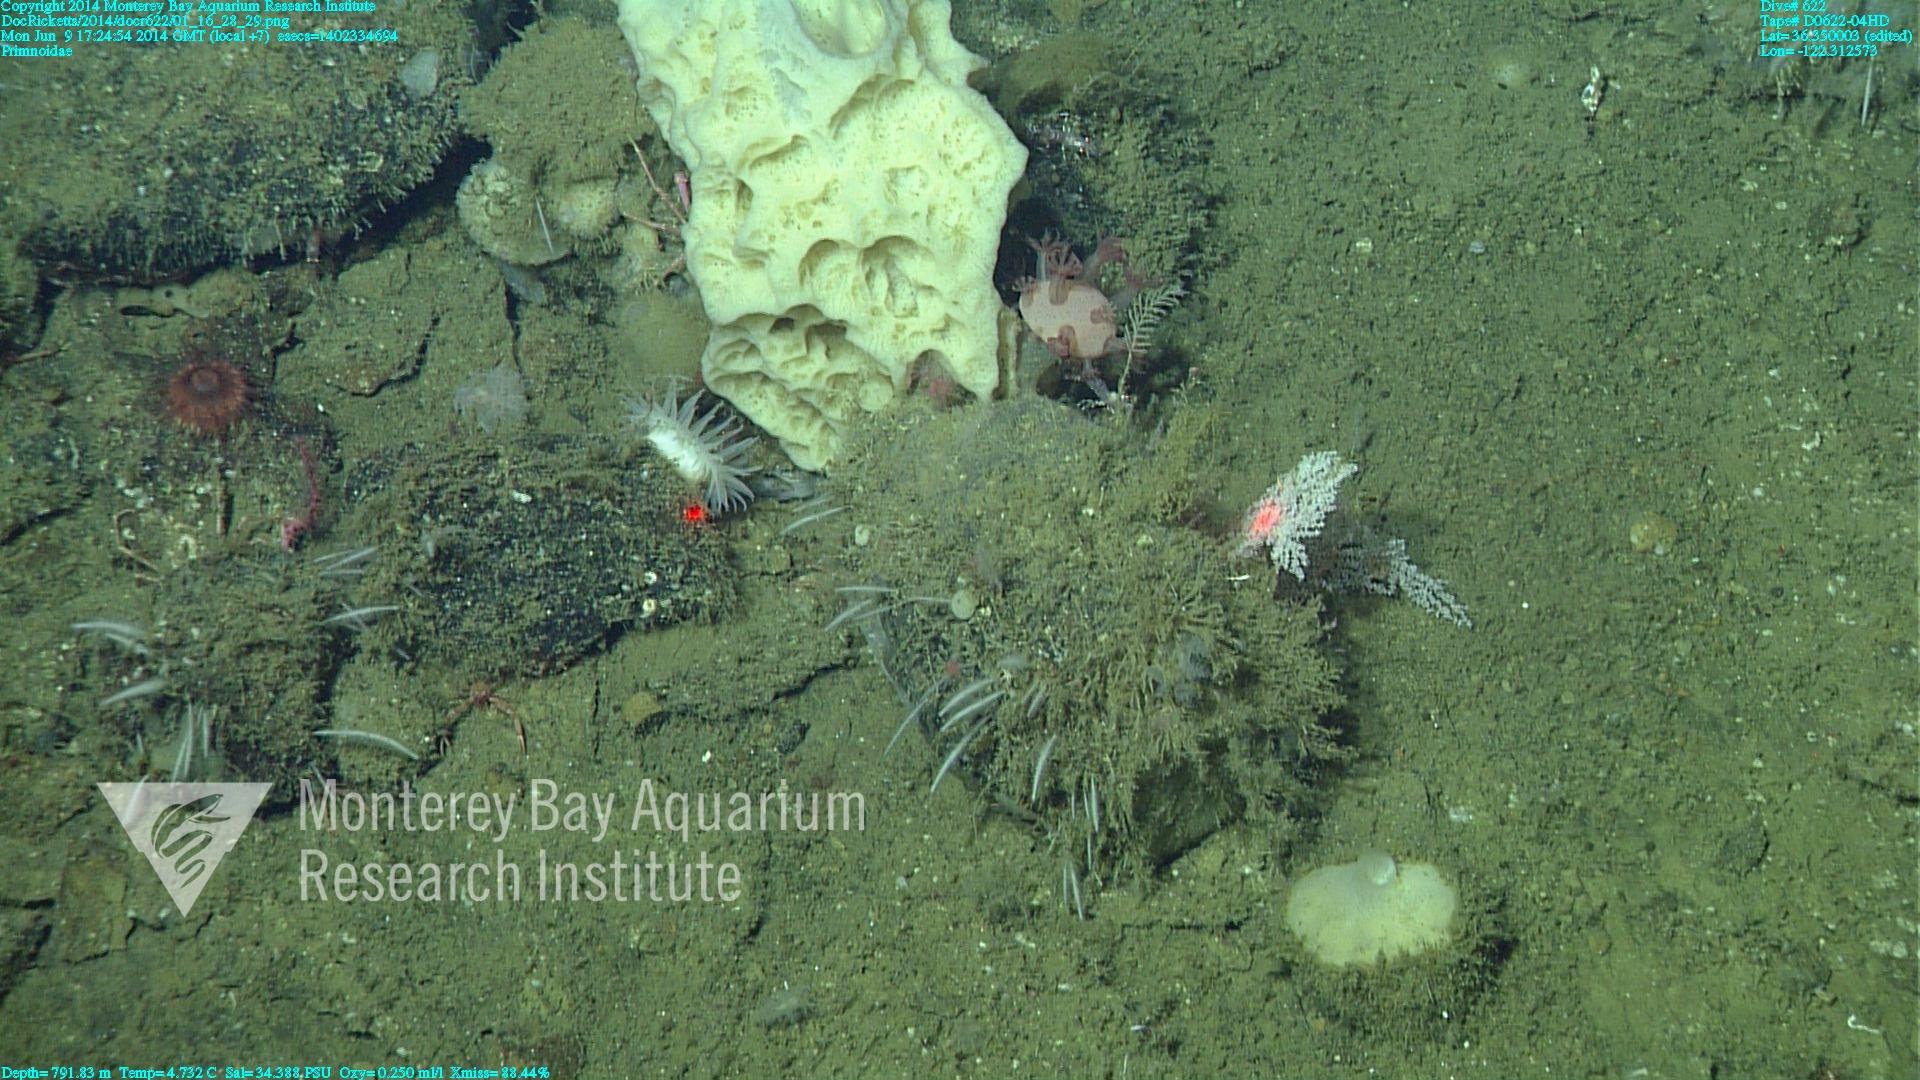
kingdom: Animalia
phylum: Cnidaria
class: Anthozoa
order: Scleralcyonacea
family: Primnoidae
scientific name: Primnoidae
